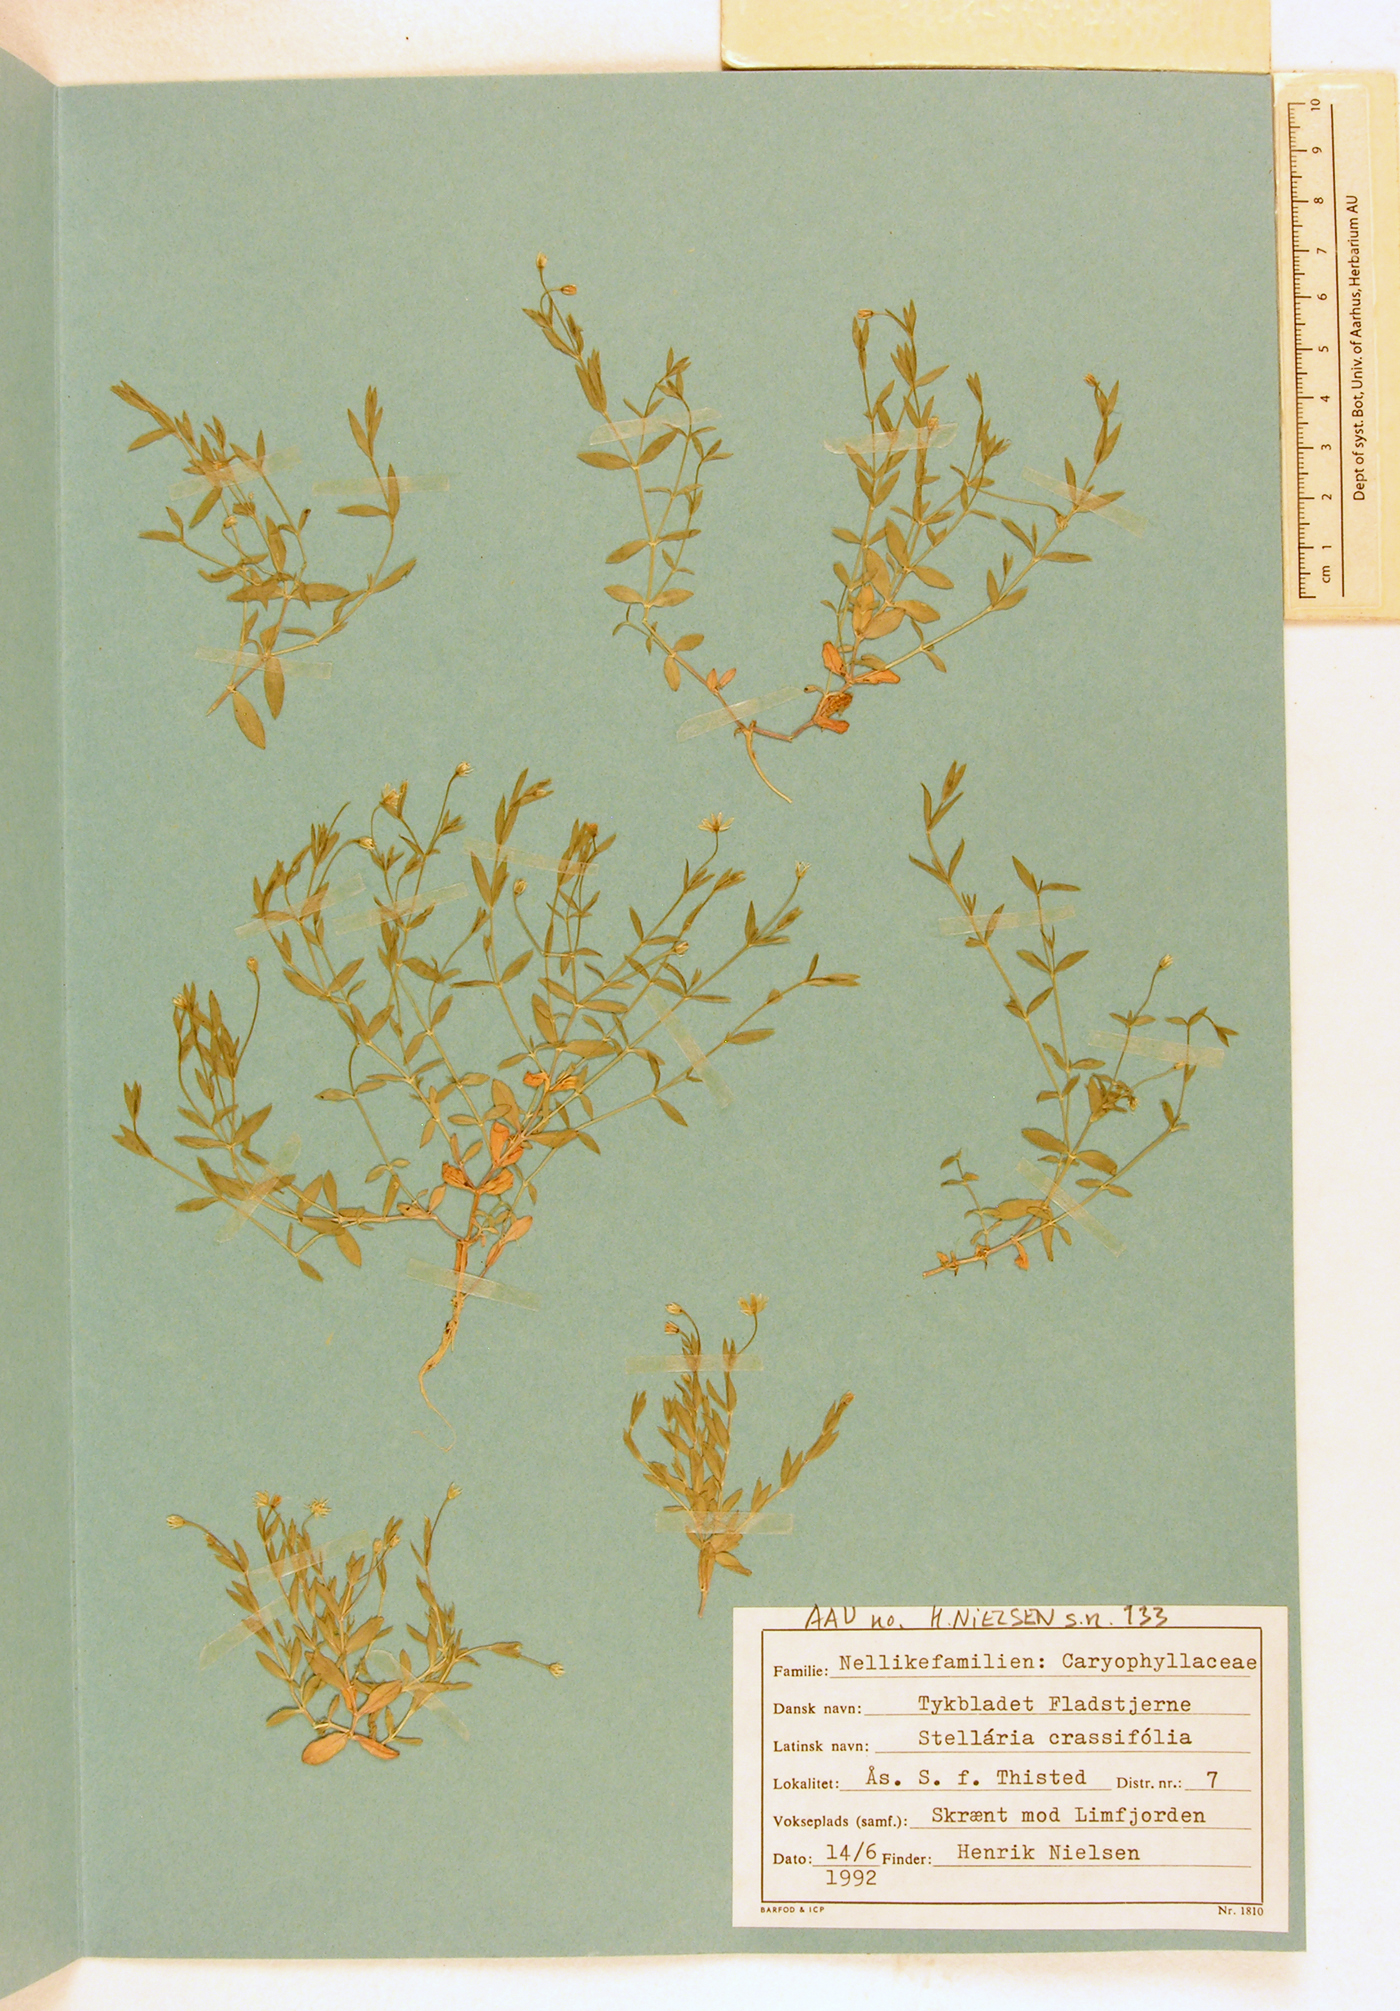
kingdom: Plantae
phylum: Tracheophyta
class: Magnoliopsida
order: Caryophyllales
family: Caryophyllaceae
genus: Stellaria
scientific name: Stellaria crassifolia
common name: Fleshy starwort
